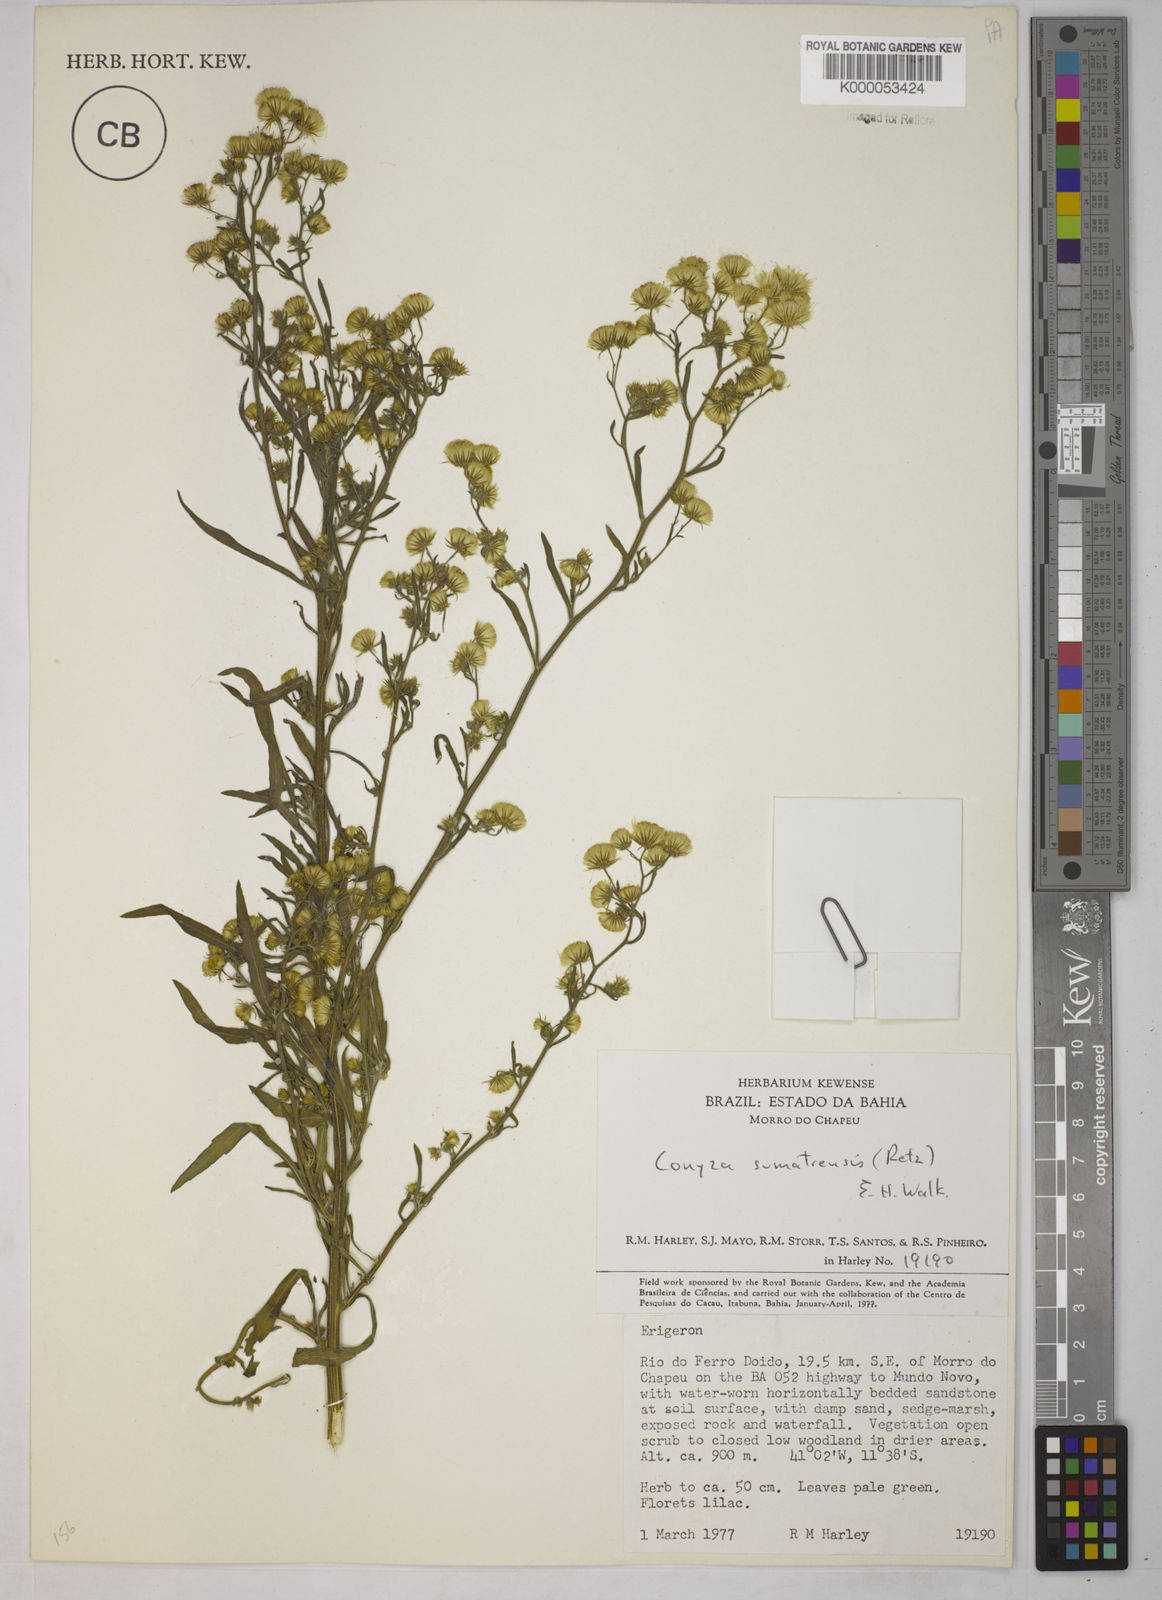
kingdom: Plantae
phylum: Tracheophyta
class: Magnoliopsida
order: Asterales
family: Asteraceae
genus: Erigeron
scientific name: Erigeron sumatrensis
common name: Daisy
